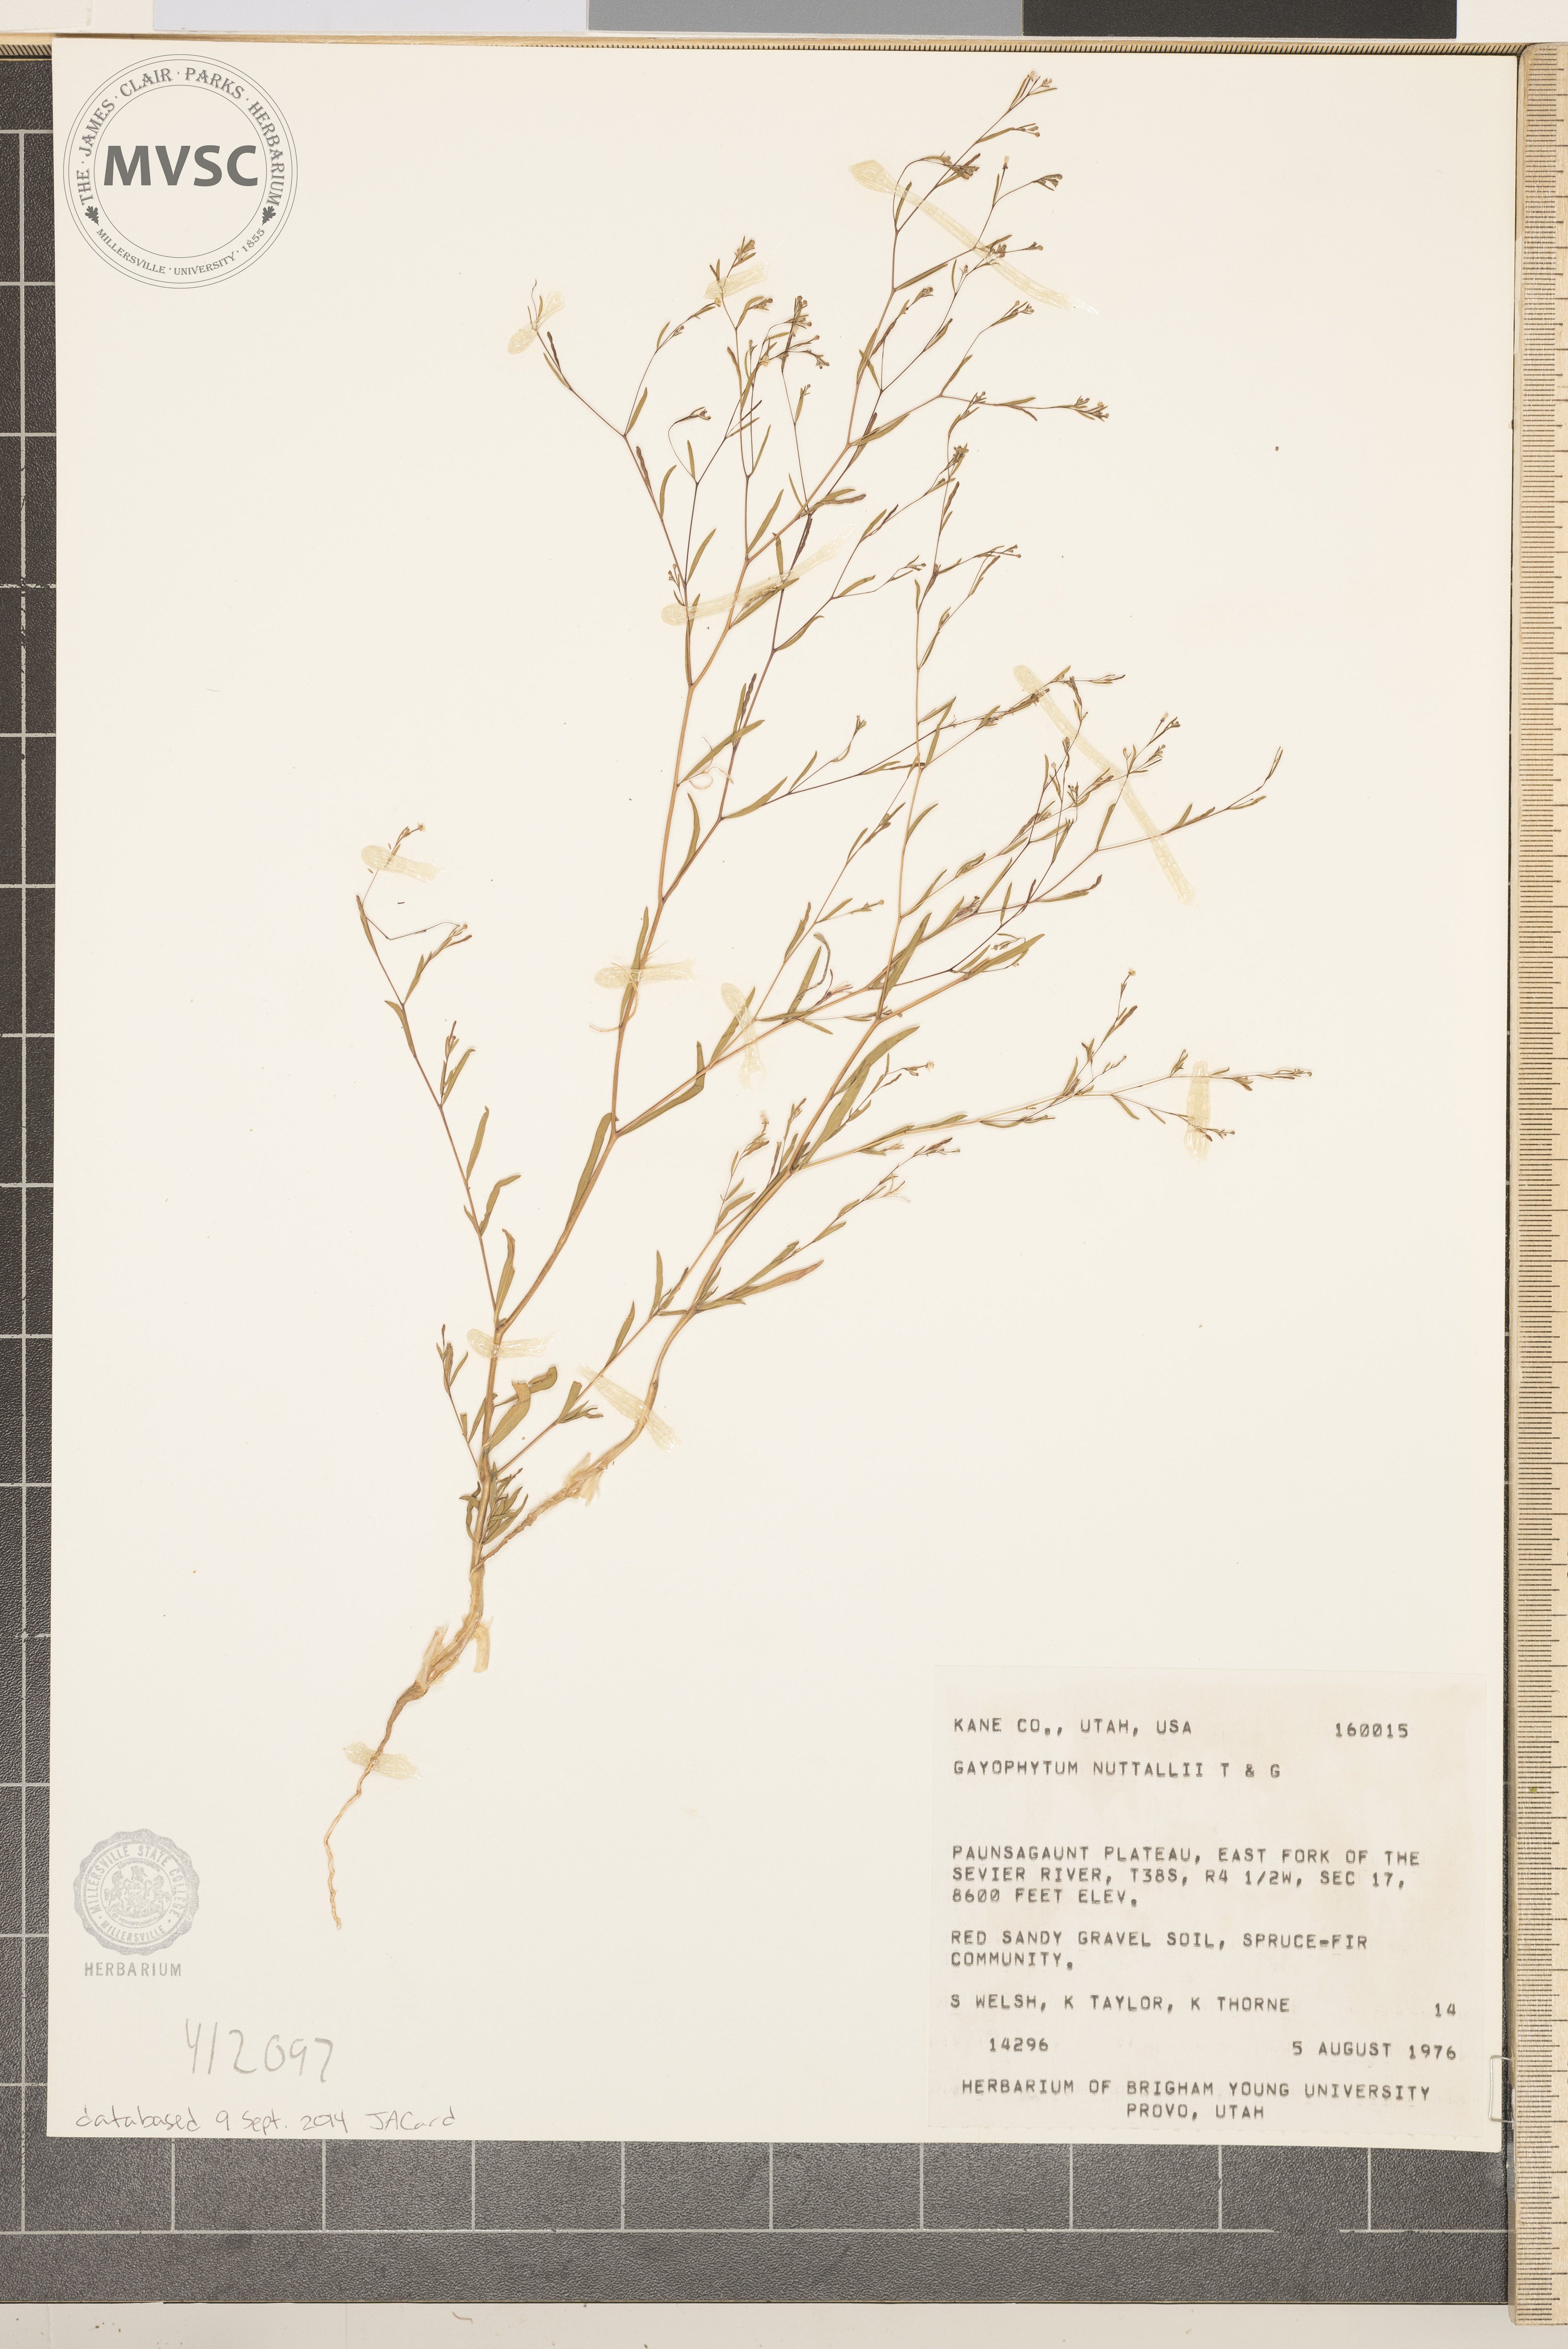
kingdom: Plantae
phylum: Tracheophyta
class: Magnoliopsida
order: Myrtales
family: Onagraceae
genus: Gayophytum
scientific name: Gayophytum humile
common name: Dwarf groundsmoke
